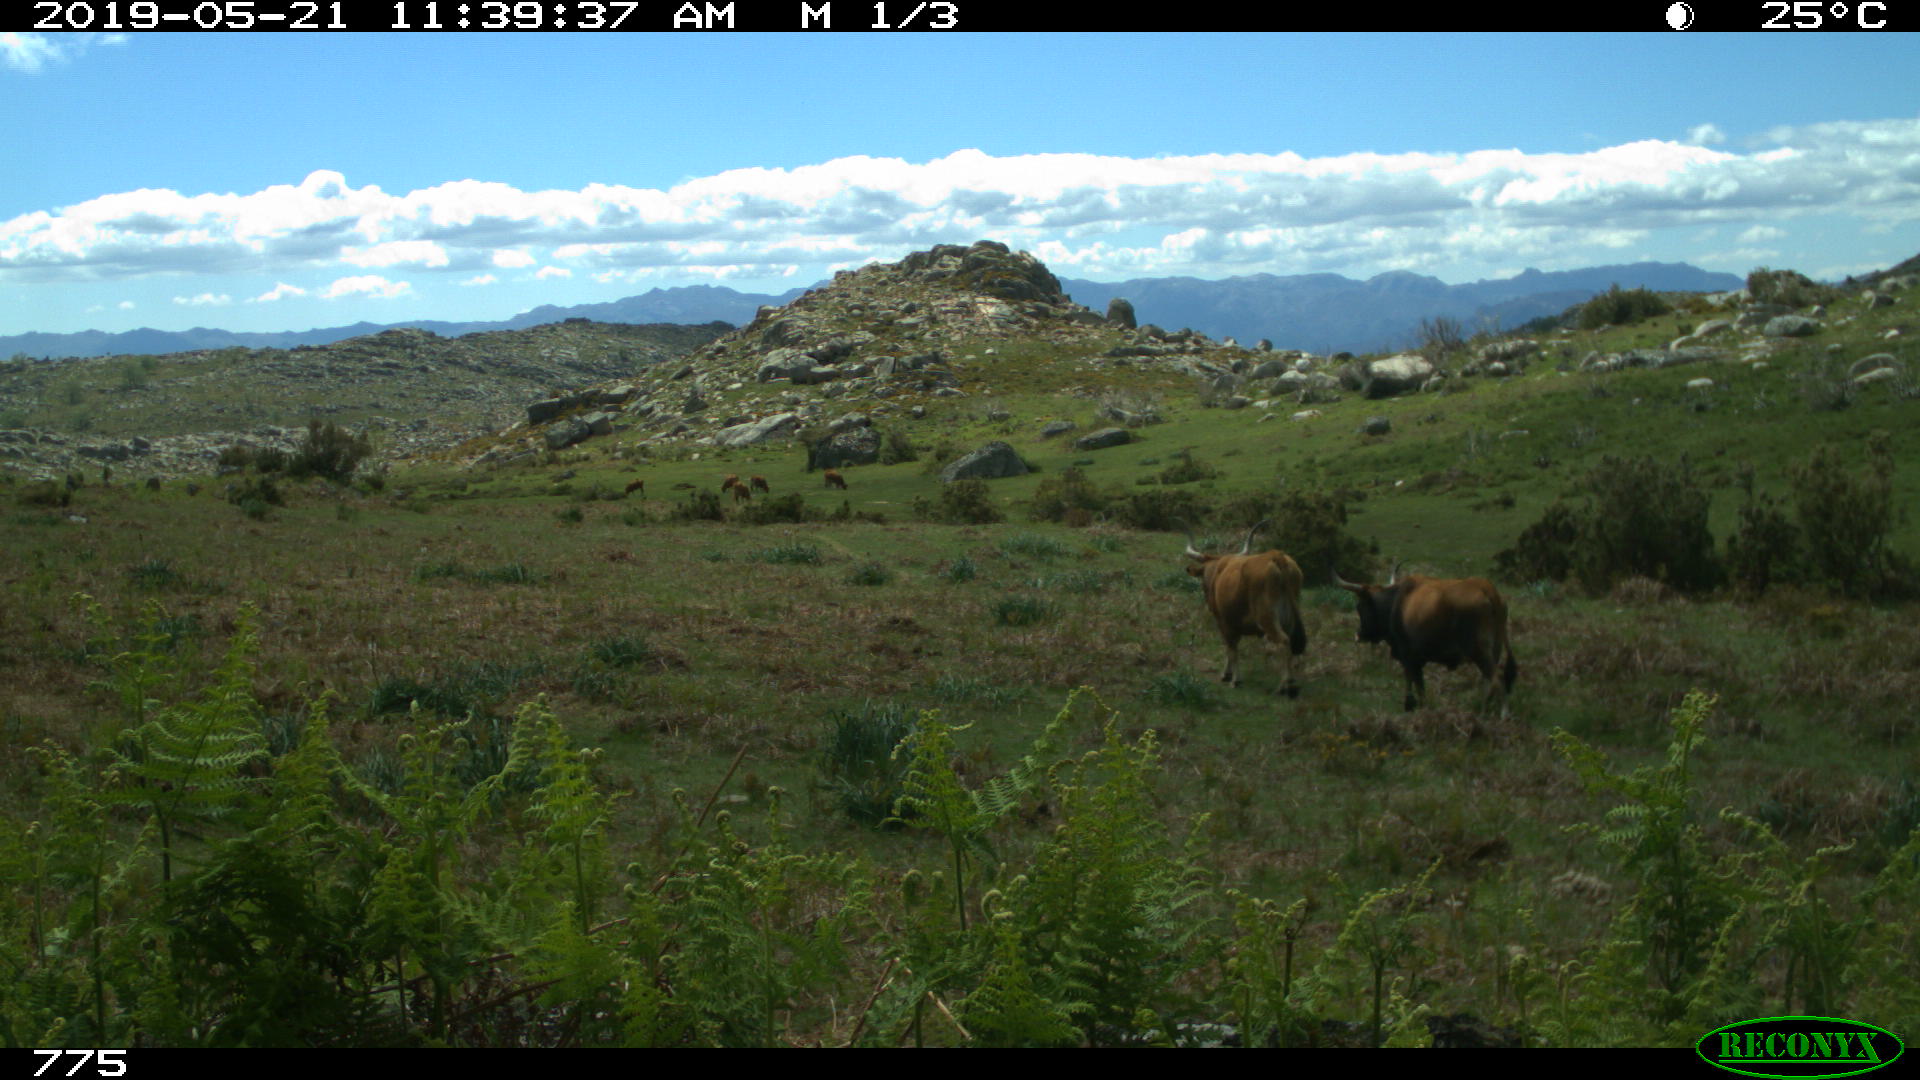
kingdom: Animalia
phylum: Chordata
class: Mammalia
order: Artiodactyla
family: Bovidae
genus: Bos
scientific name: Bos taurus
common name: Domesticated cattle
